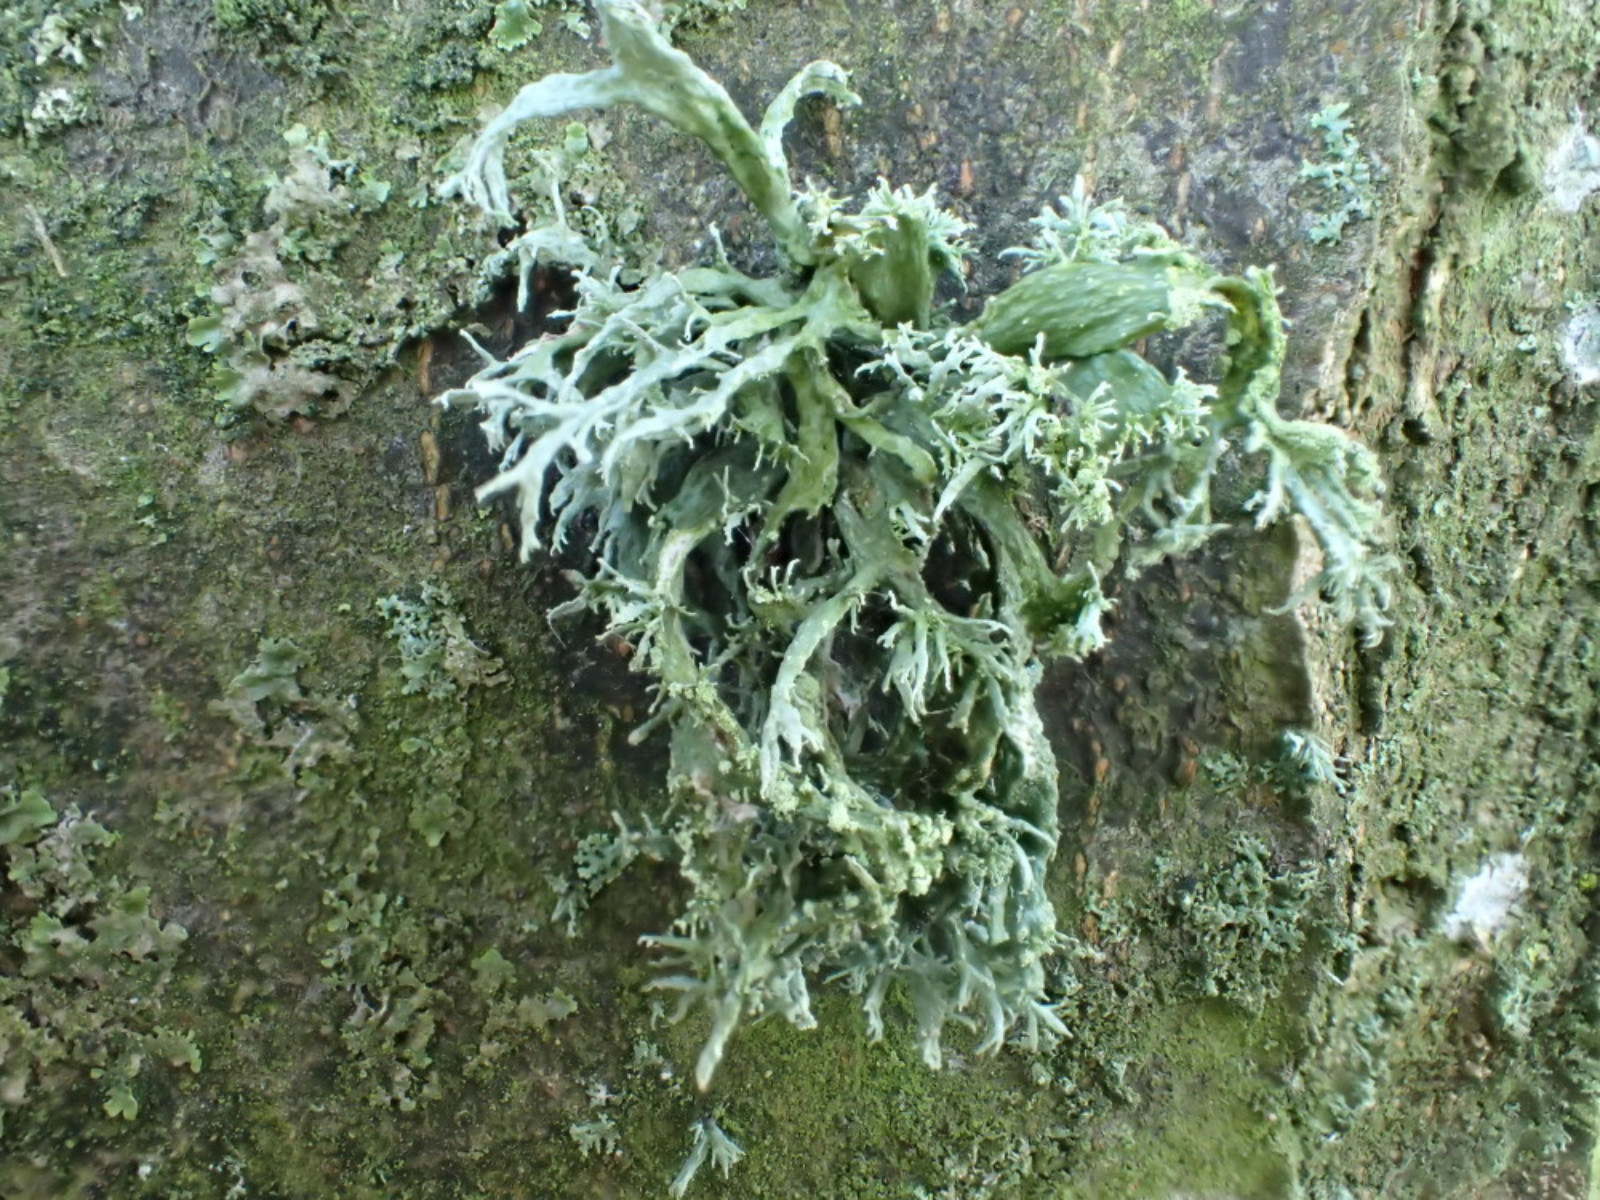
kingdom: Fungi
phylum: Ascomycota
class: Lecanoromycetes
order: Lecanorales
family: Ramalinaceae
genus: Ramalina
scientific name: Ramalina farinacea
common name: melet grenlav
